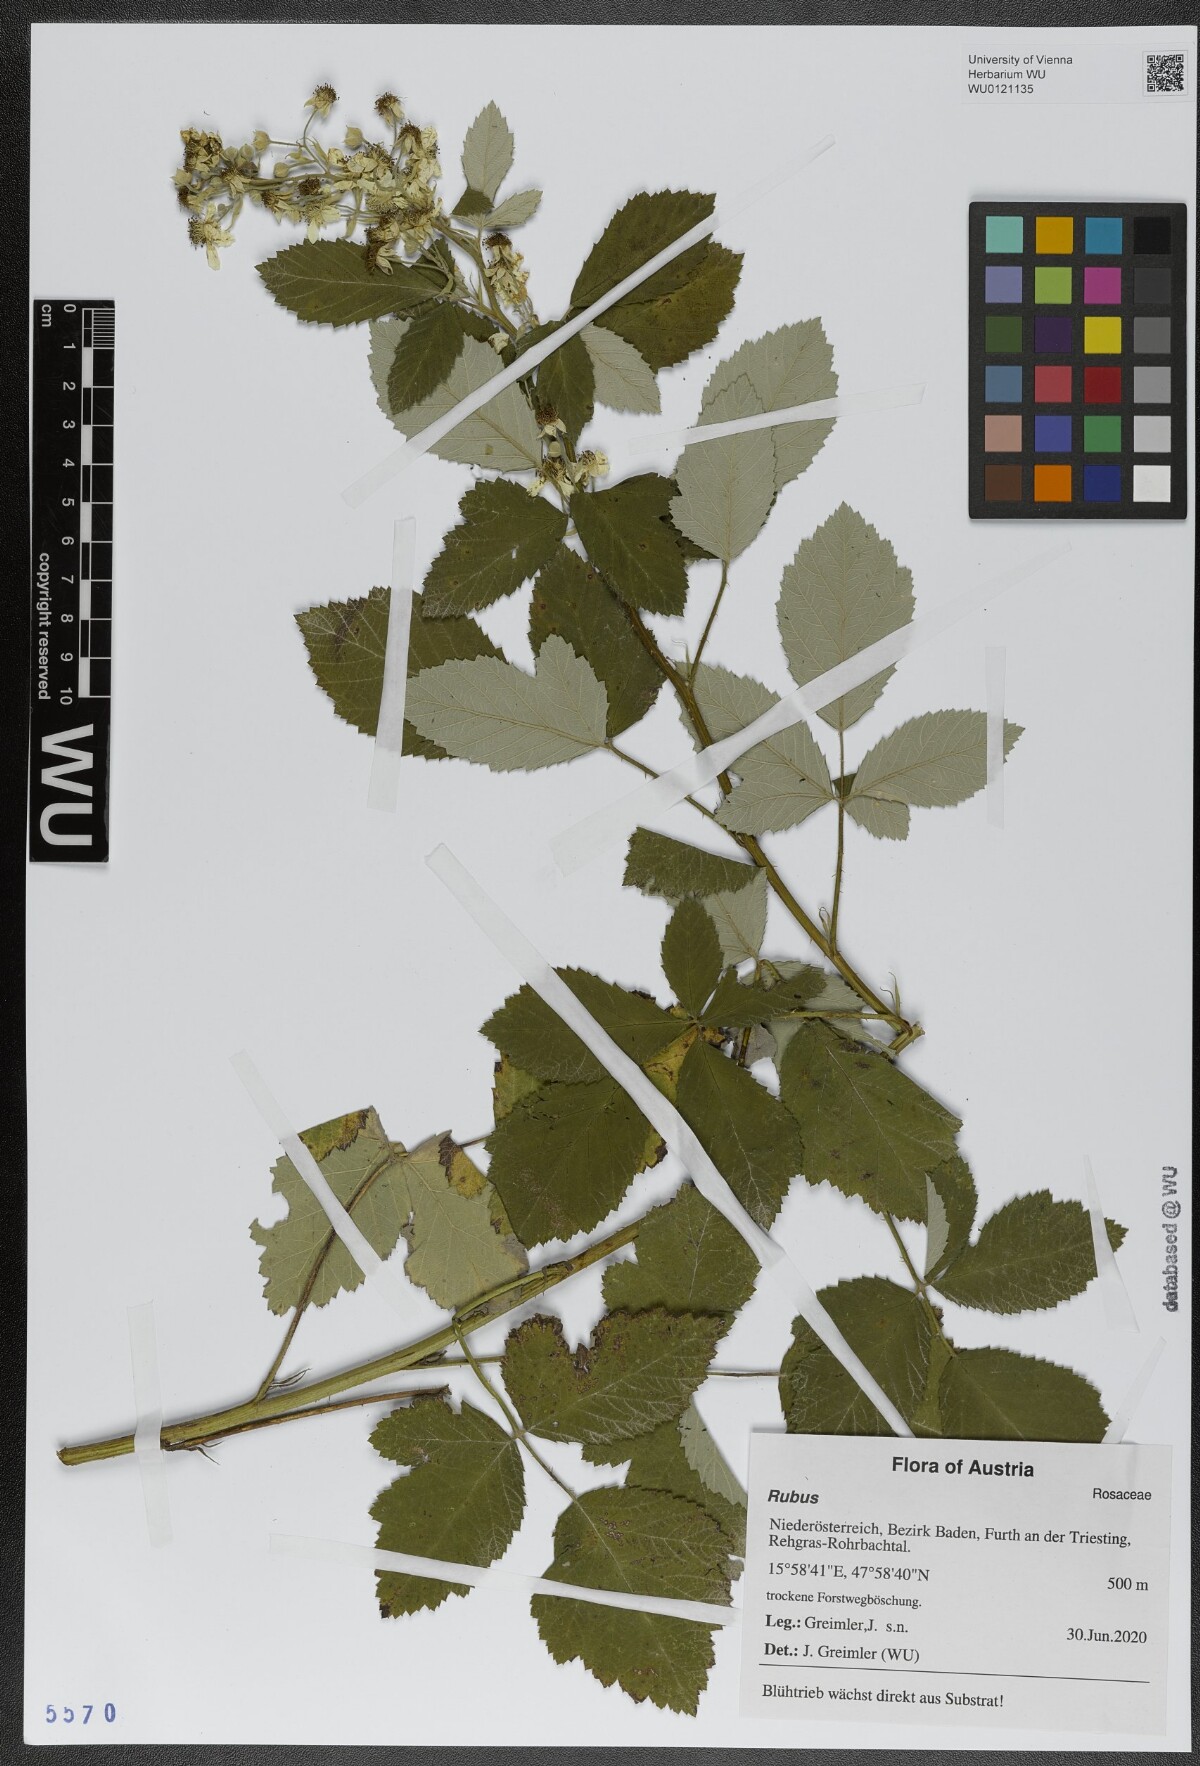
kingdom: Plantae
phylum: Tracheophyta
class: Magnoliopsida
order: Rosales
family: Rosaceae
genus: Rubus
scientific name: Rubus
